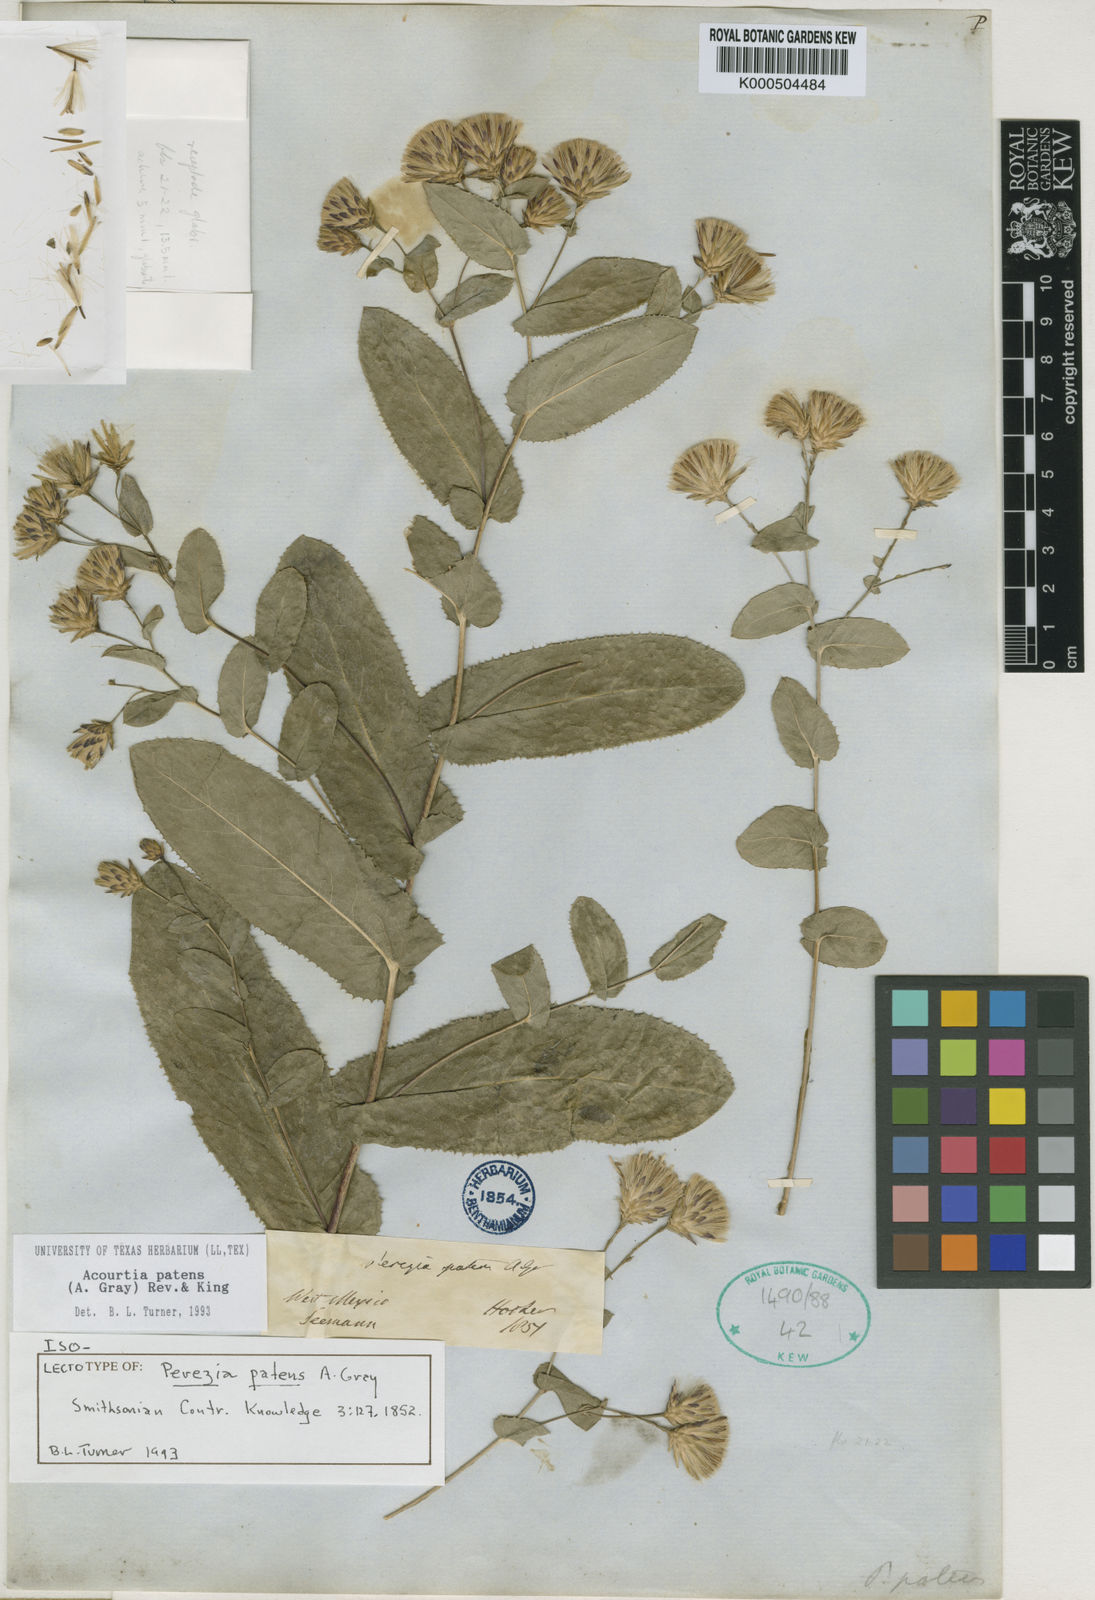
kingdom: Plantae
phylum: Tracheophyta
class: Magnoliopsida
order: Asterales
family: Asteraceae
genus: Acourtia
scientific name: Acourtia patens
